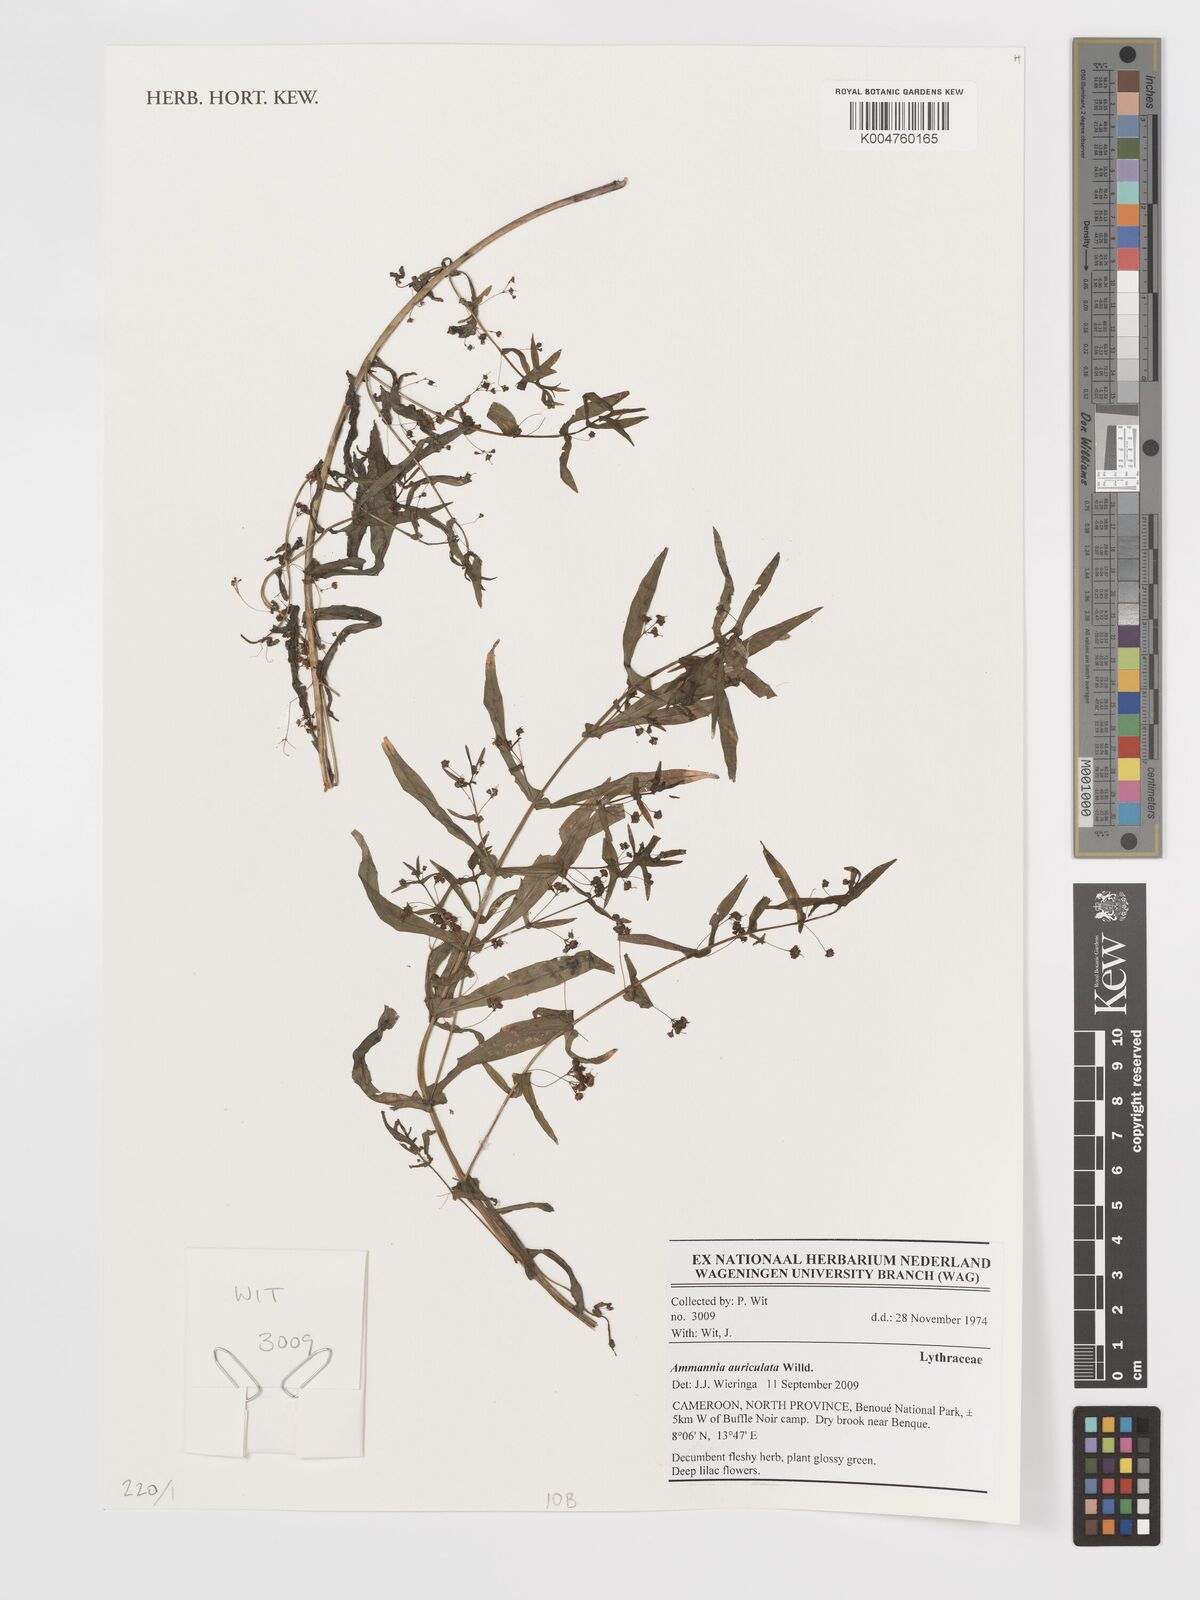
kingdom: Plantae
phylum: Tracheophyta
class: Magnoliopsida
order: Myrtales
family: Lythraceae
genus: Ammannia
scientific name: Ammannia auriculata
